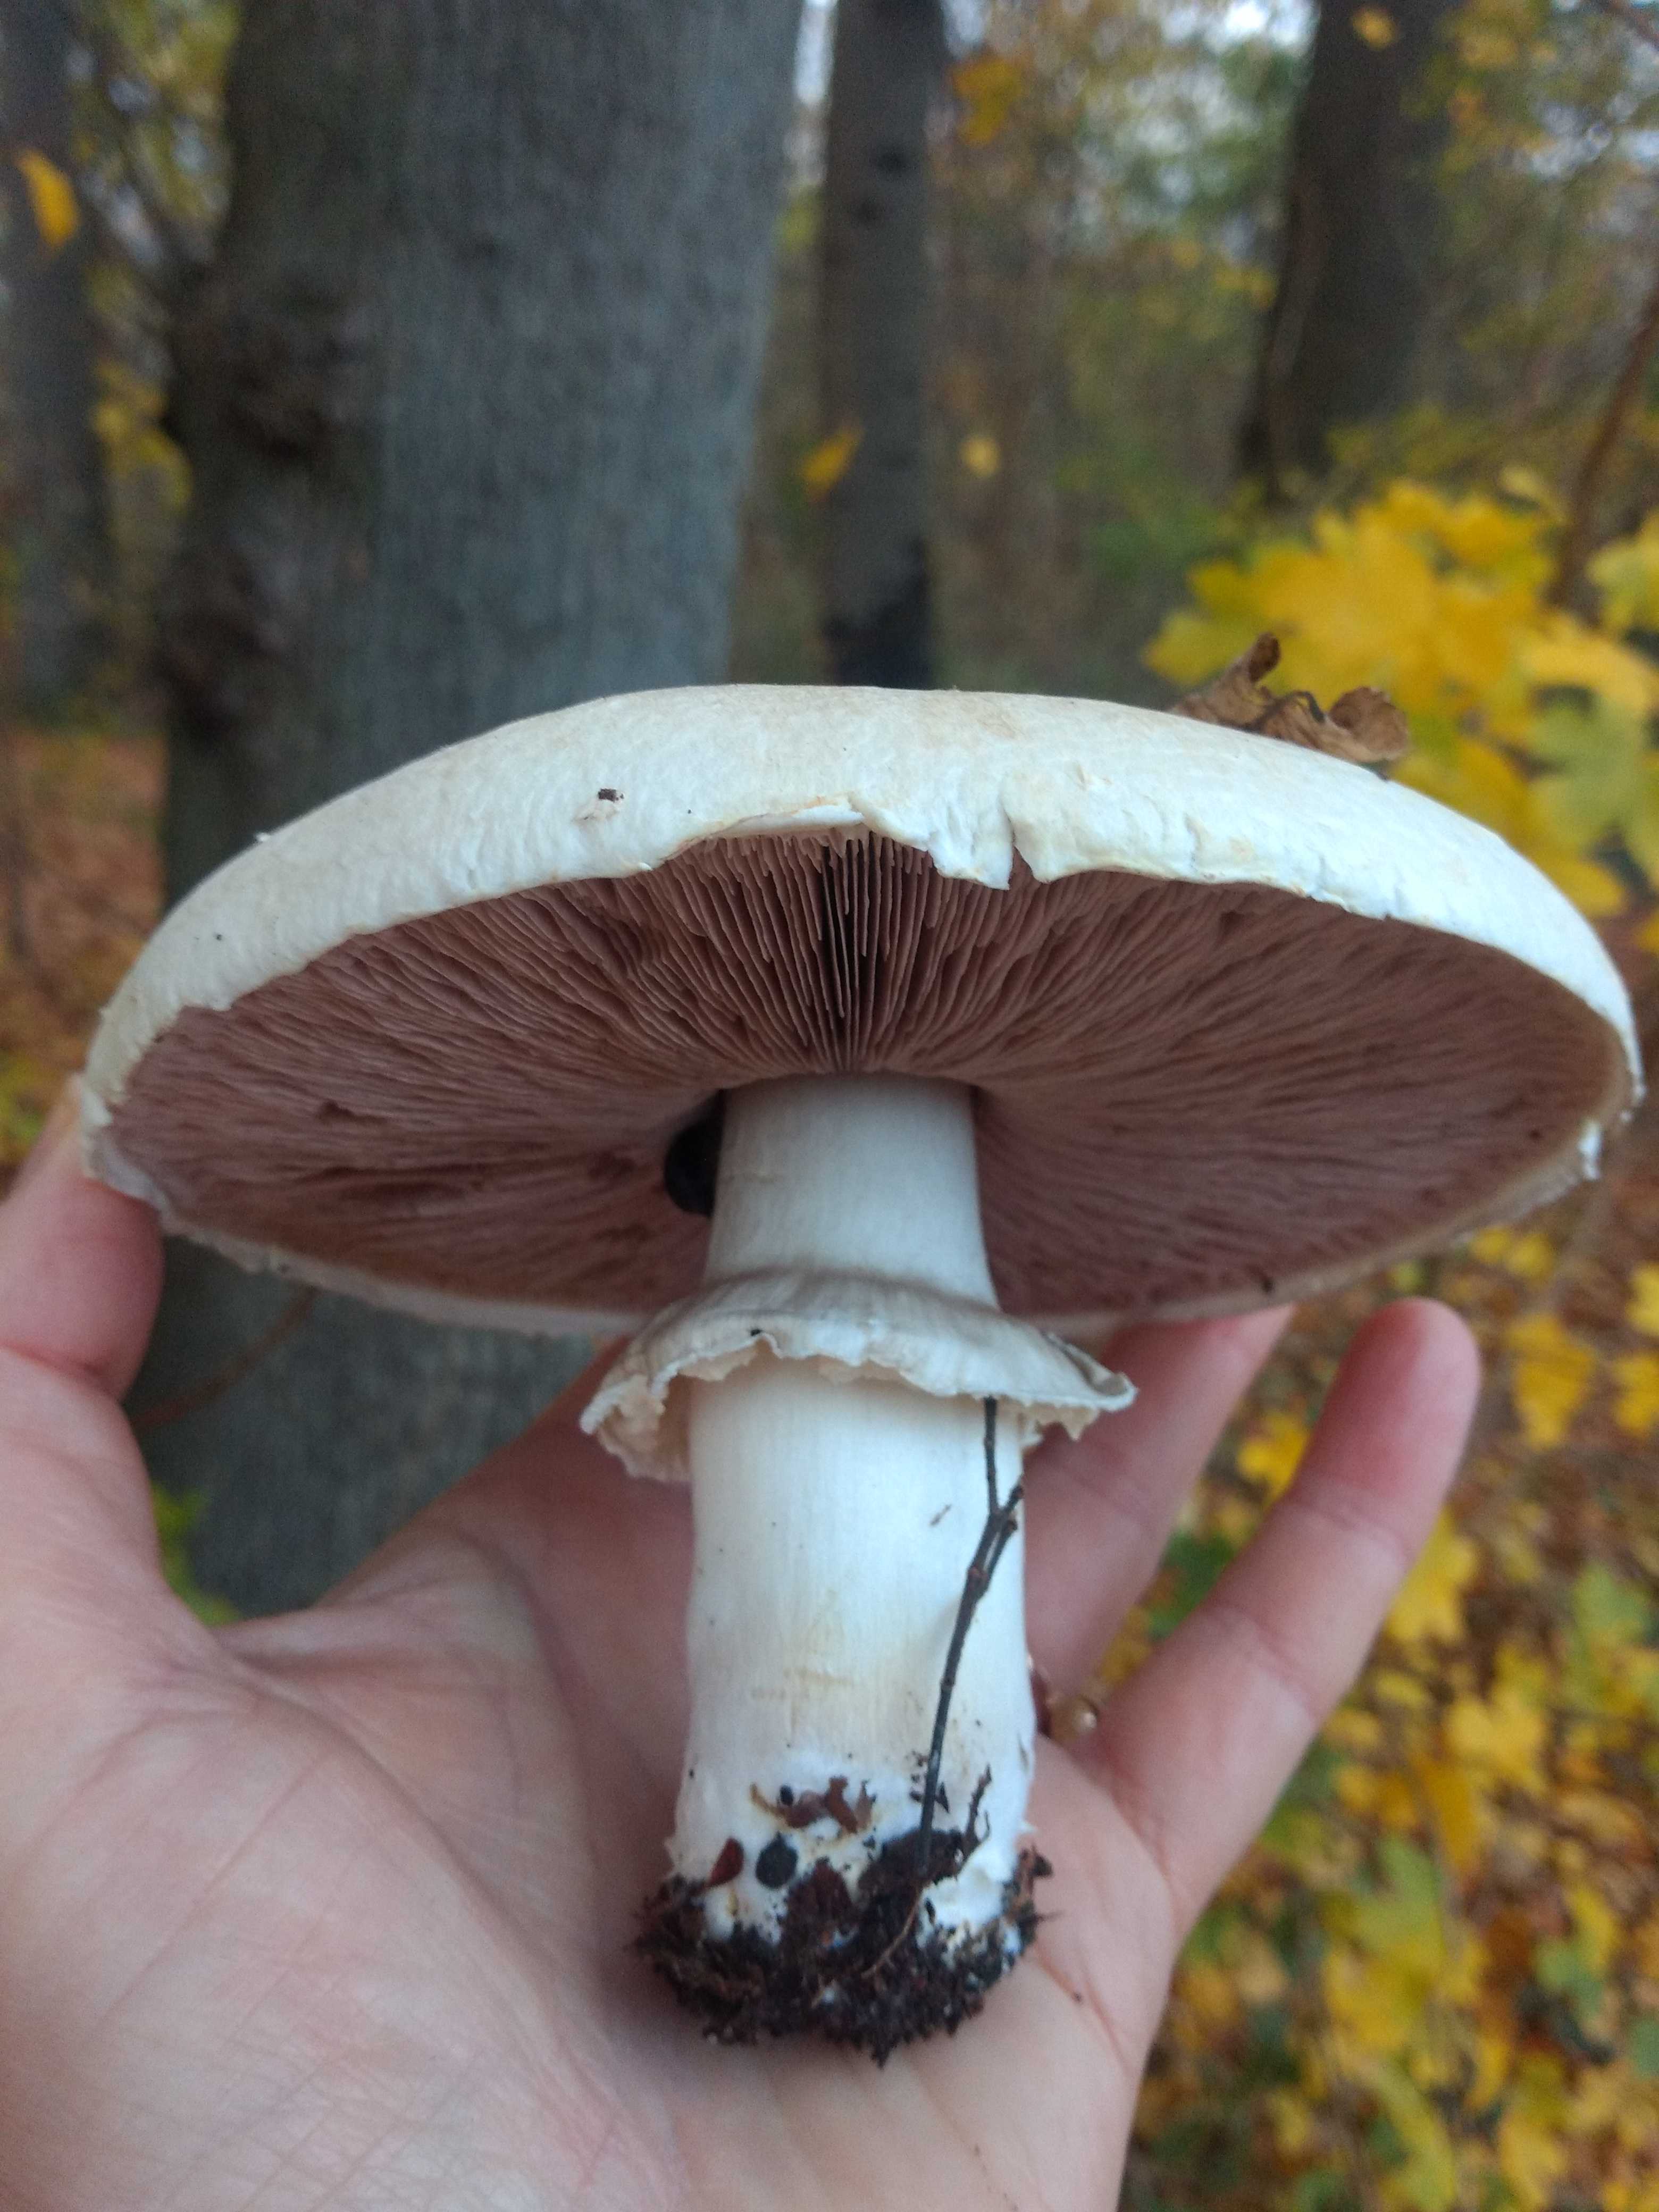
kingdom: Fungi
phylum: Basidiomycota
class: Agaricomycetes
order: Agaricales
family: Agaricaceae
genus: Agaricus
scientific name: Agaricus arvensis
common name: ager-champignon
